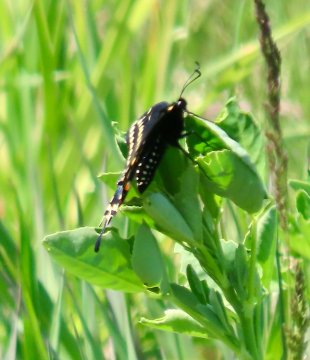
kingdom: Animalia
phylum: Arthropoda
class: Insecta
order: Lepidoptera
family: Papilionidae
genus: Papilio
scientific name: Papilio polyxenes
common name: Black Swallowtail
